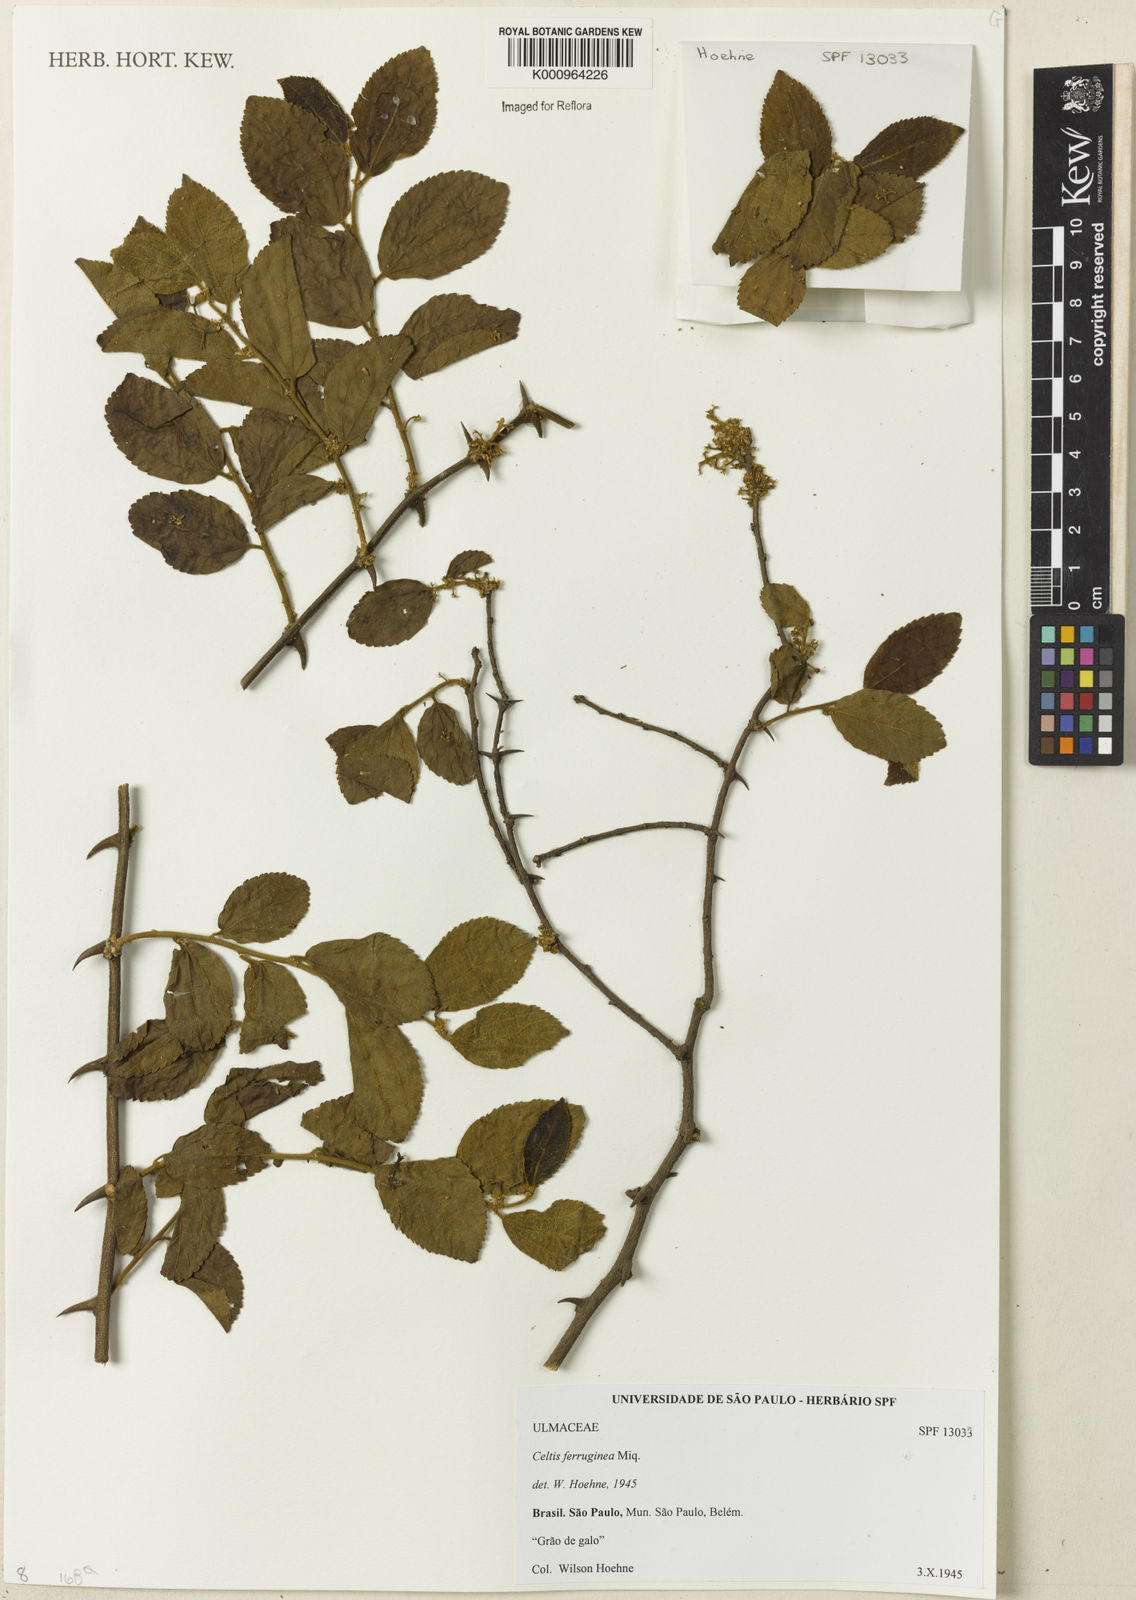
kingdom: Plantae
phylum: Tracheophyta
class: Magnoliopsida
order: Rosales
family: Cannabaceae
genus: Celtis
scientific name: Celtis brasiliensis
